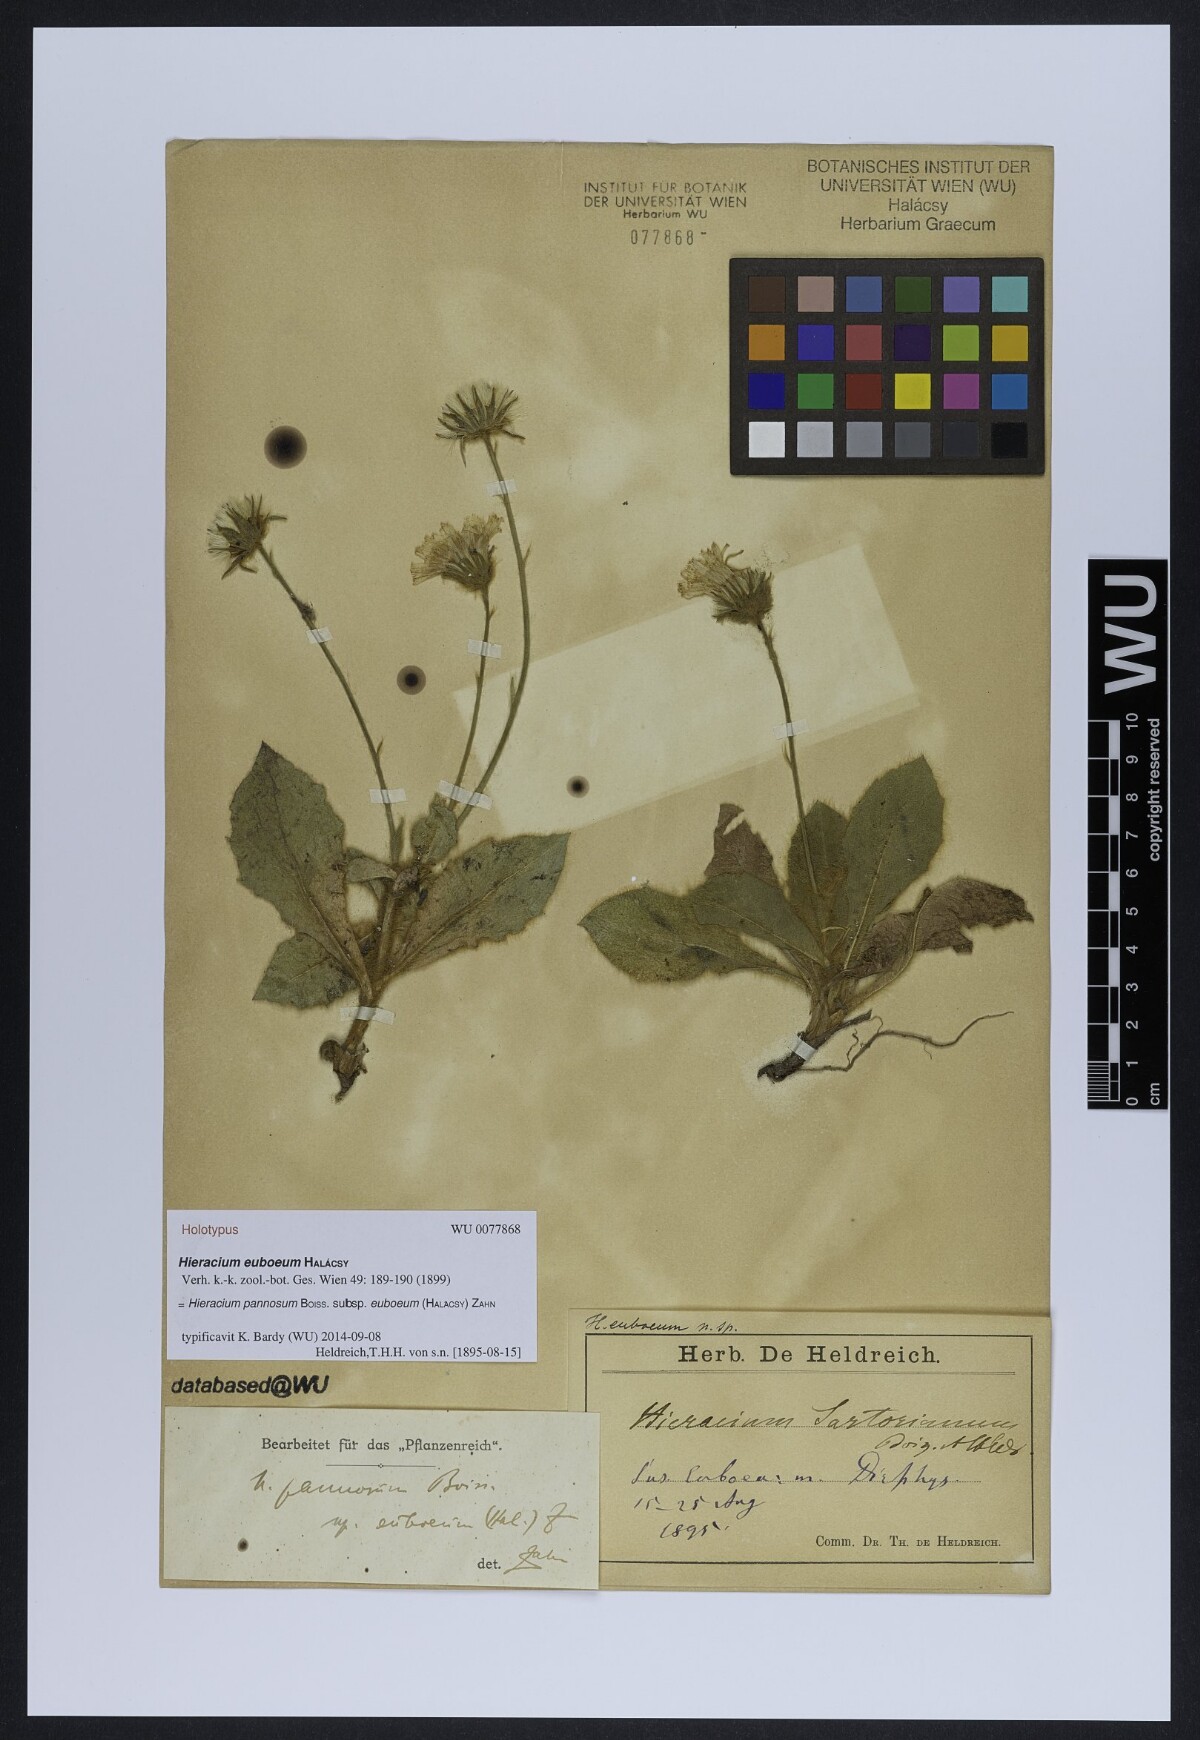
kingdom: Plantae
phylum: Tracheophyta
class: Magnoliopsida
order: Asterales
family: Asteraceae
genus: Hieracium
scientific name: Hieracium pannosum
